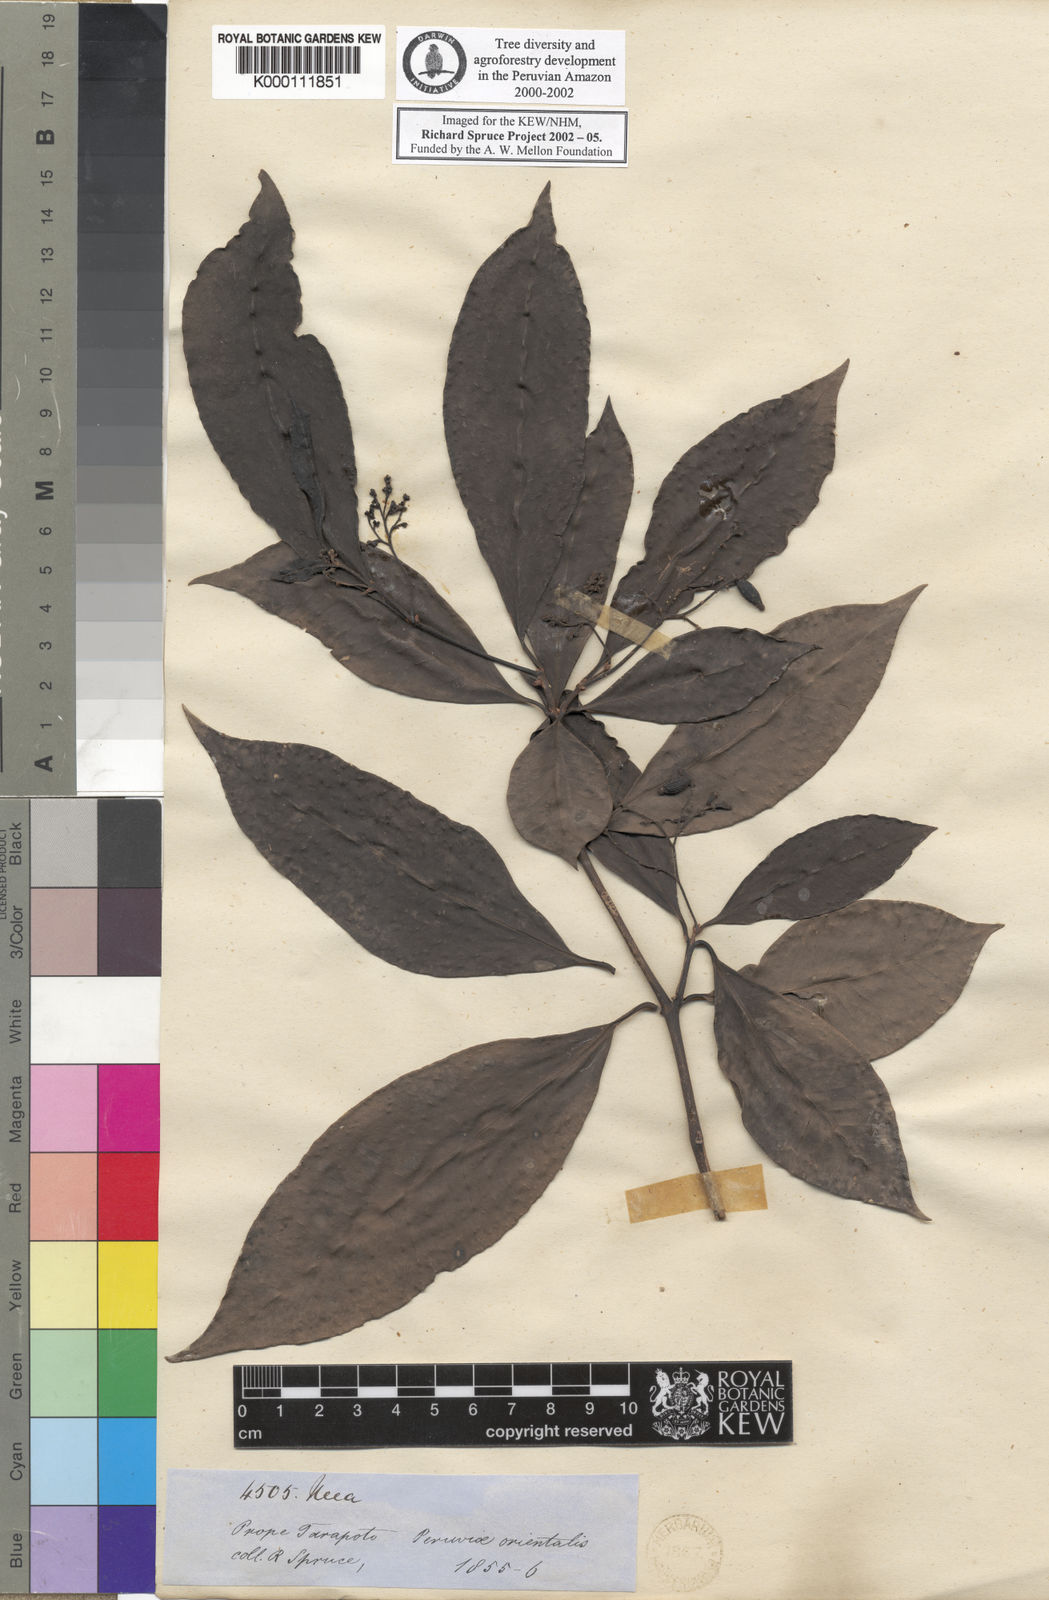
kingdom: Plantae
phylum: Tracheophyta
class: Magnoliopsida
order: Caryophyllales
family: Nyctaginaceae
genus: Neea
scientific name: Neea
